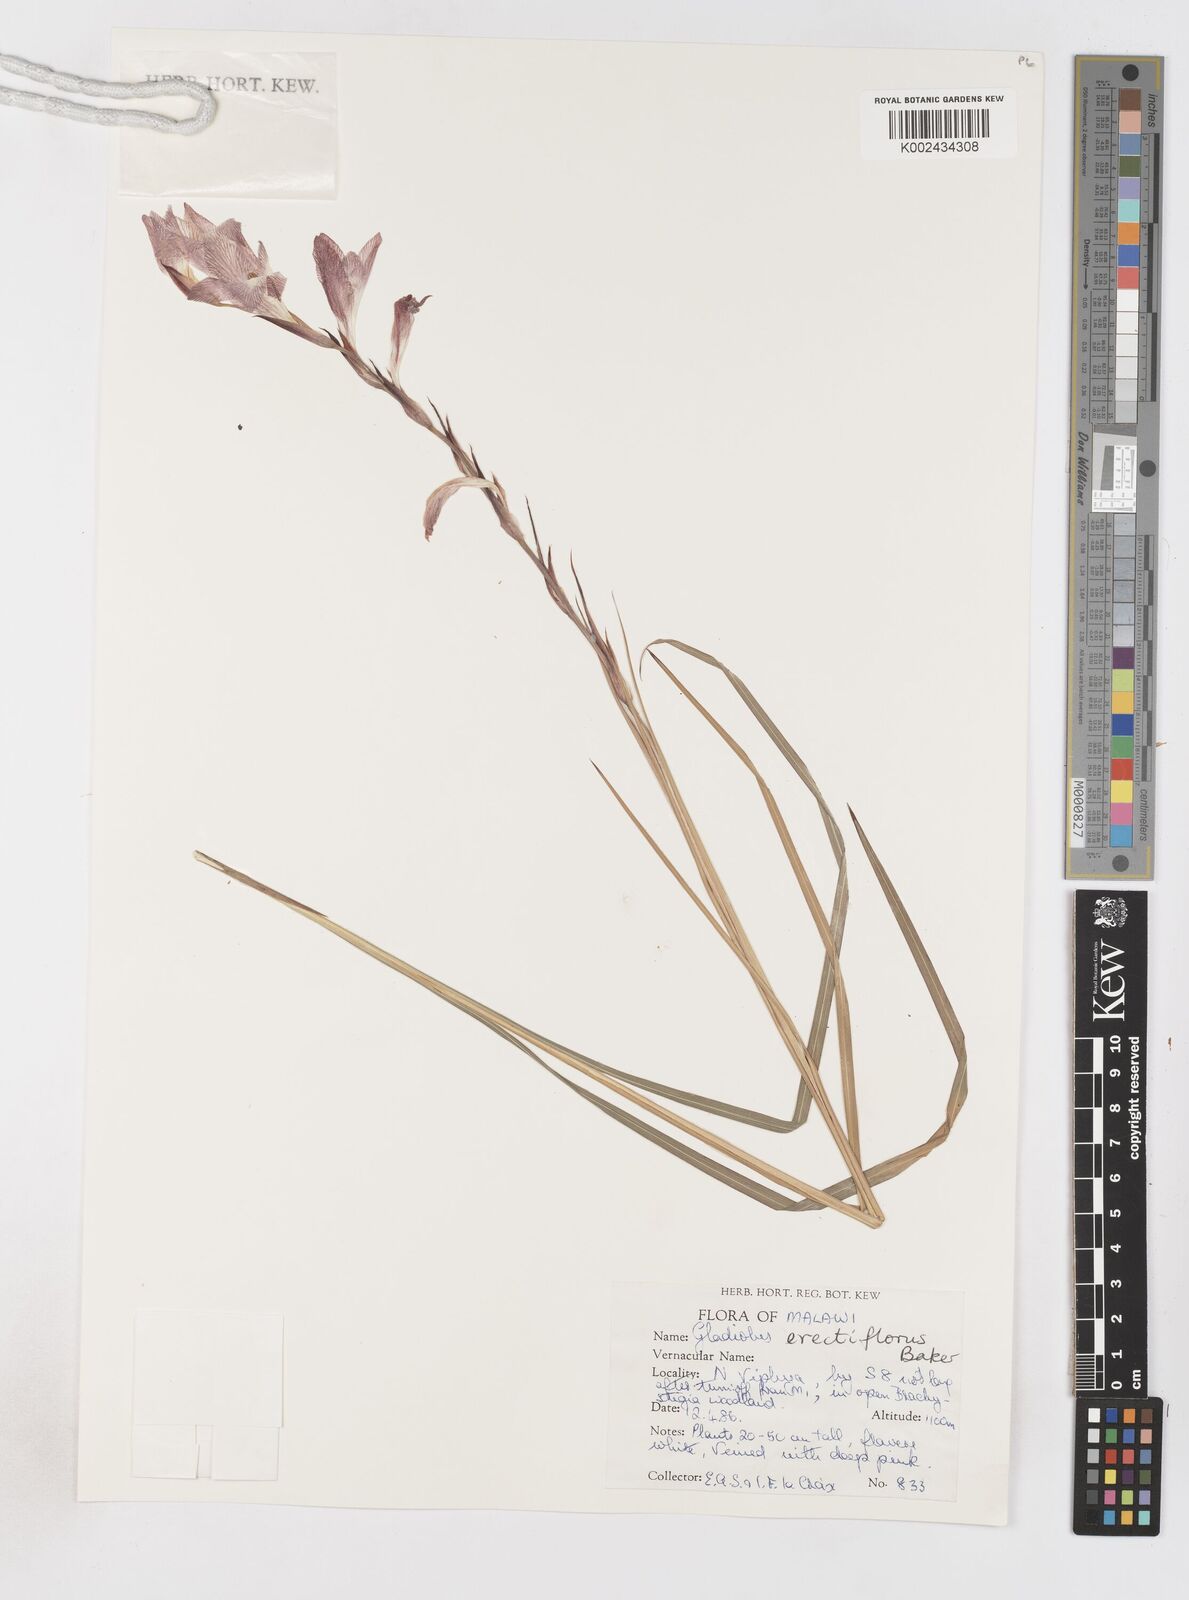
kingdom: Plantae
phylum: Tracheophyta
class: Liliopsida
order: Asparagales
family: Iridaceae
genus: Gladiolus
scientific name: Gladiolus erectiflorus
